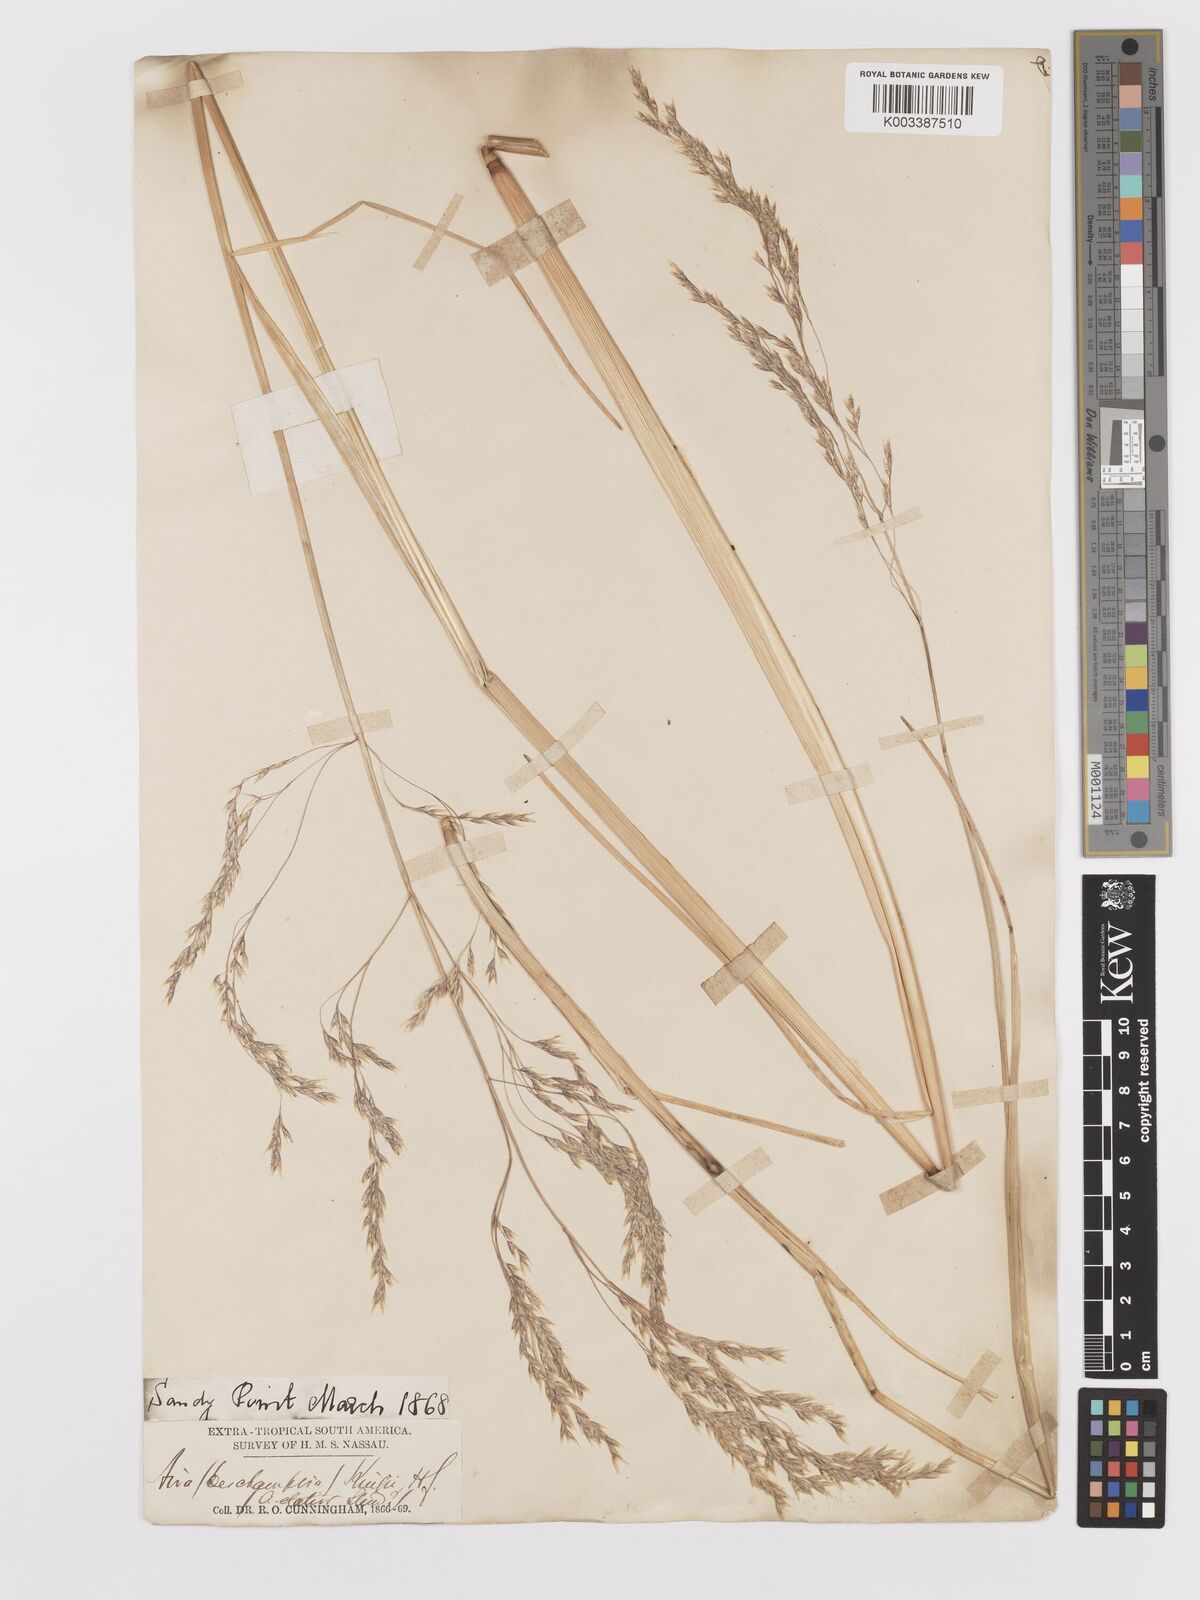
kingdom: Plantae
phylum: Tracheophyta
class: Liliopsida
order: Poales
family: Poaceae
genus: Deschampsia
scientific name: Deschampsia kingii
